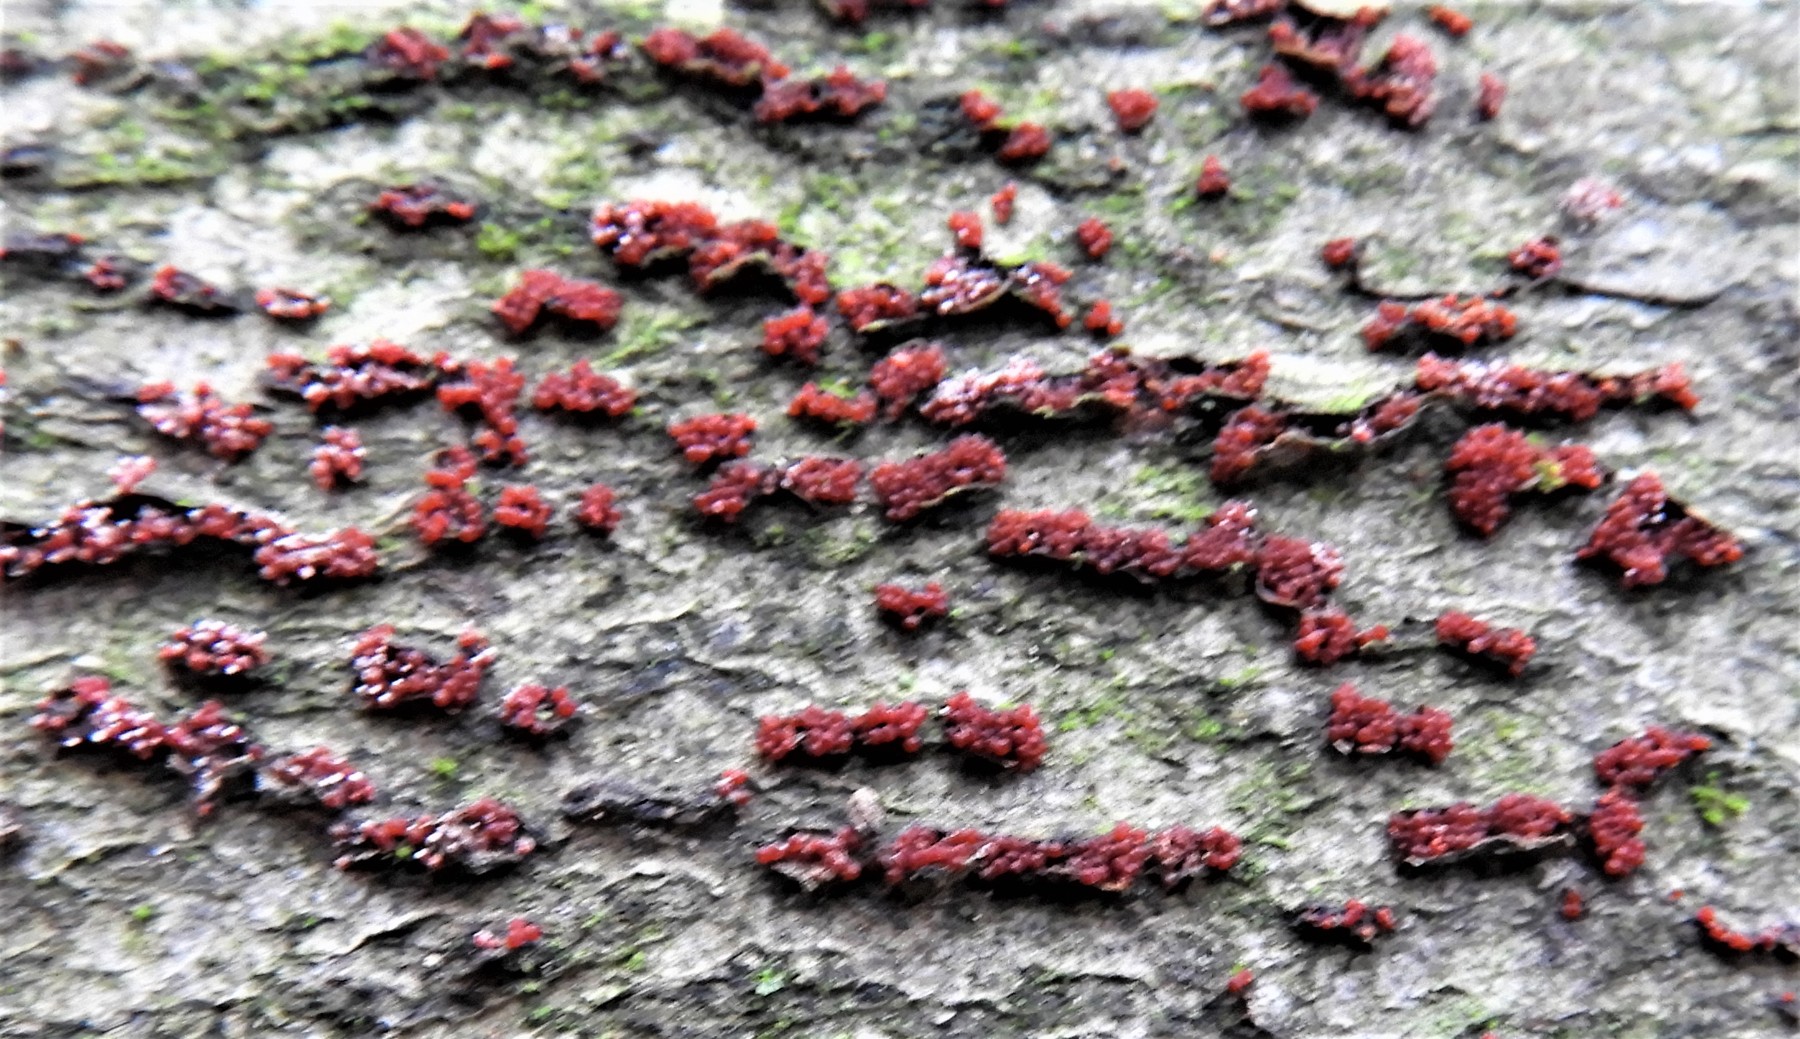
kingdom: Fungi
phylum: Ascomycota
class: Sordariomycetes
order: Hypocreales
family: Nectriaceae
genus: Neonectria
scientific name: Neonectria coccinea
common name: bøgebark-cinnobersvamp
